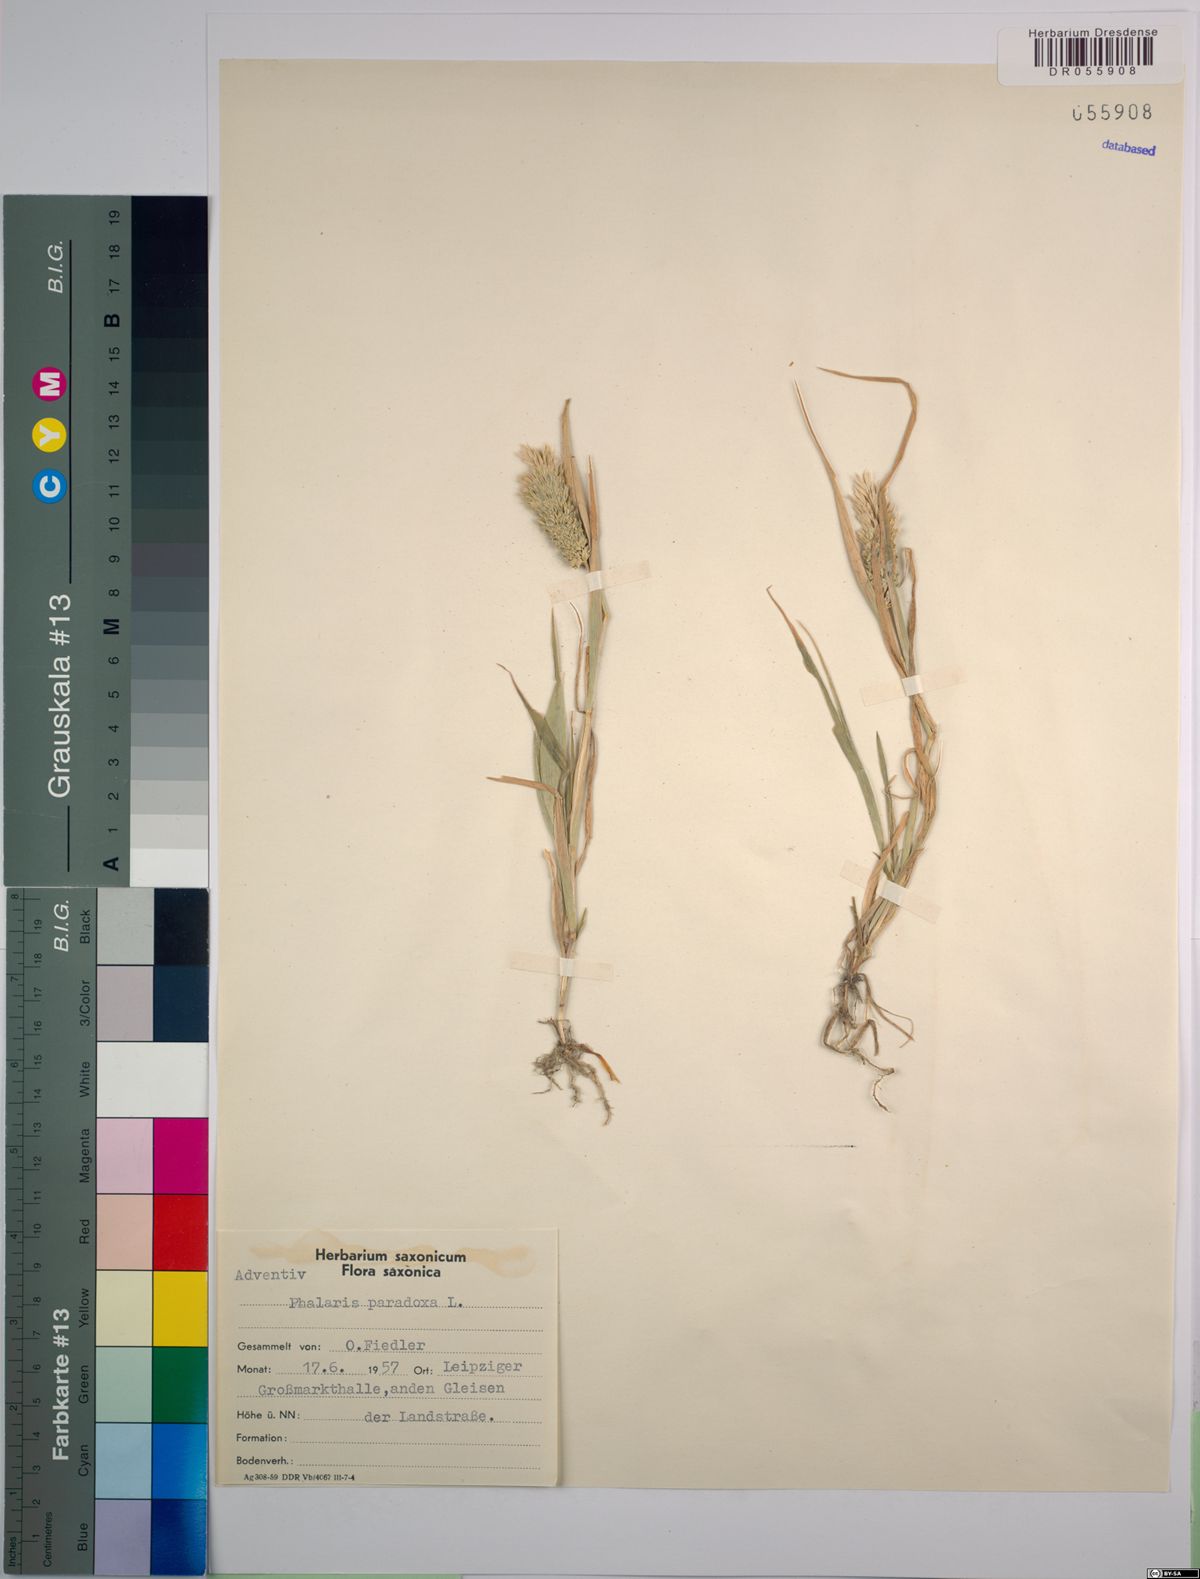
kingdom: Plantae
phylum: Tracheophyta
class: Liliopsida
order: Poales
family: Poaceae
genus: Phalaris
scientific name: Phalaris paradoxa
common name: Awned canary-grass
